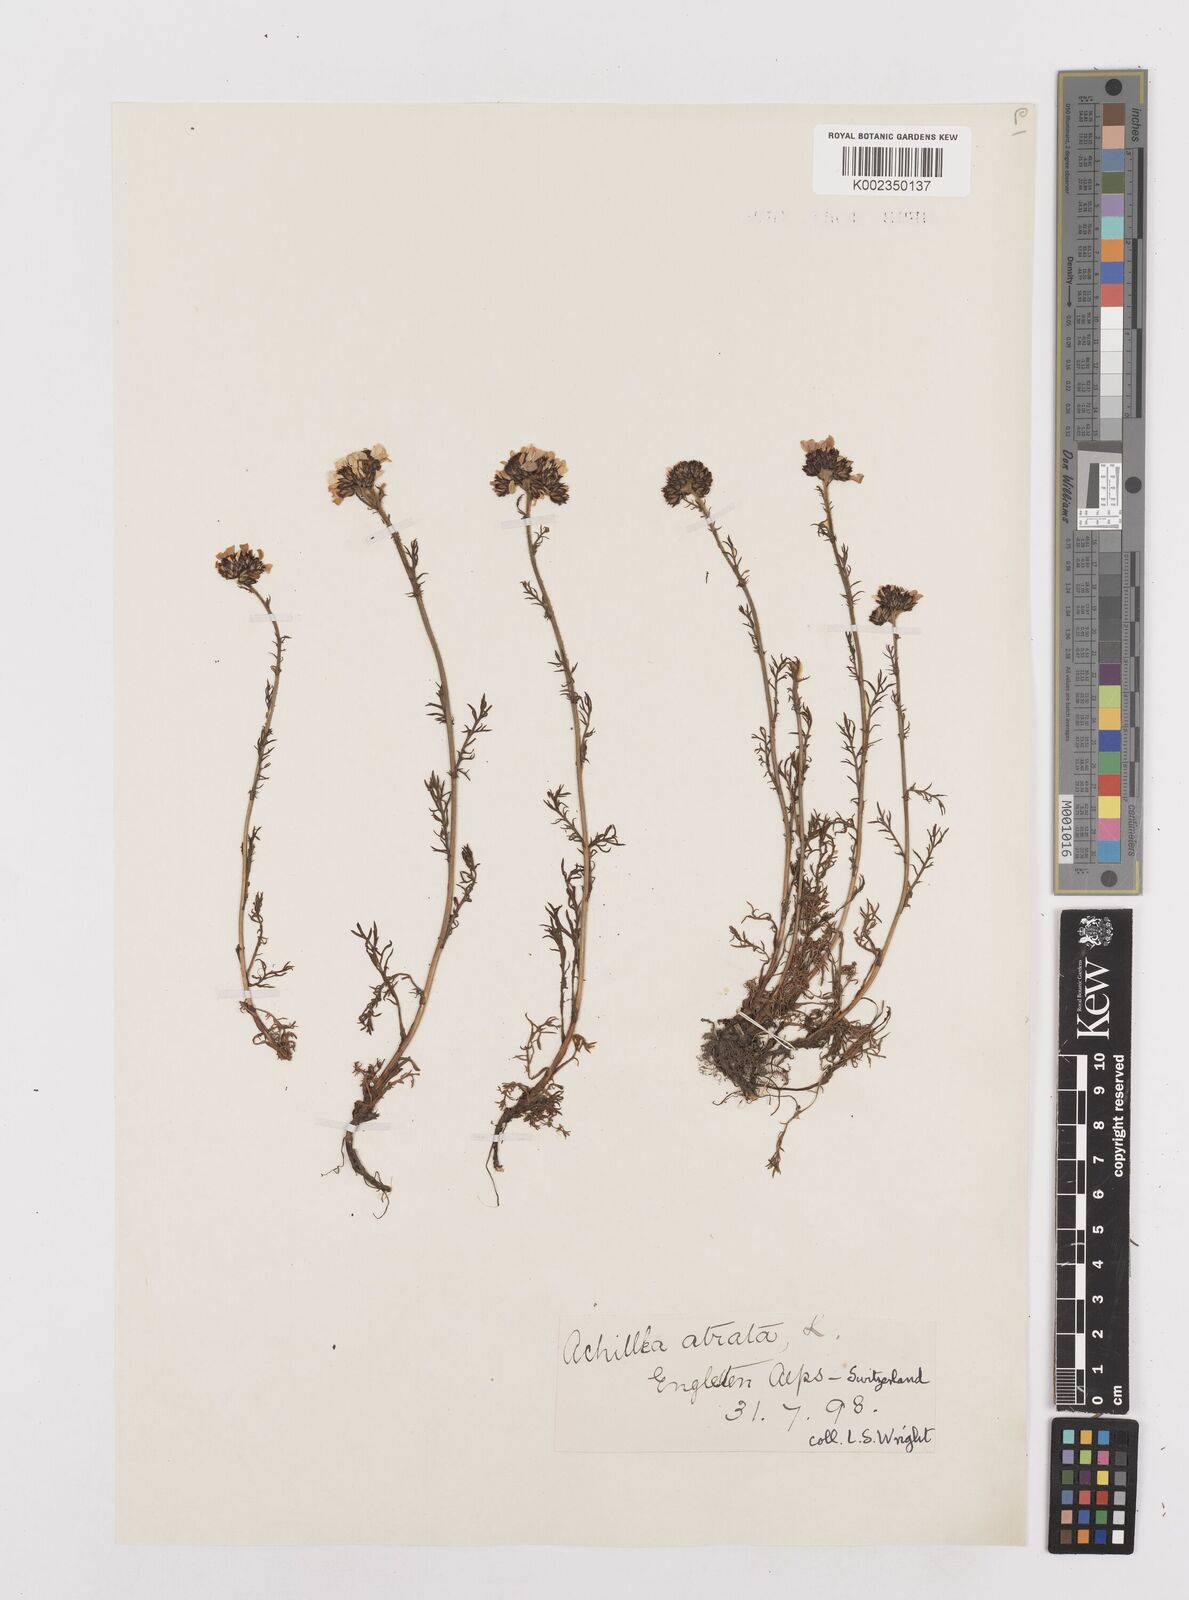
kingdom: Plantae
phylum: Tracheophyta
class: Magnoliopsida
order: Asterales
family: Asteraceae
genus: Achillea
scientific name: Achillea atrata
